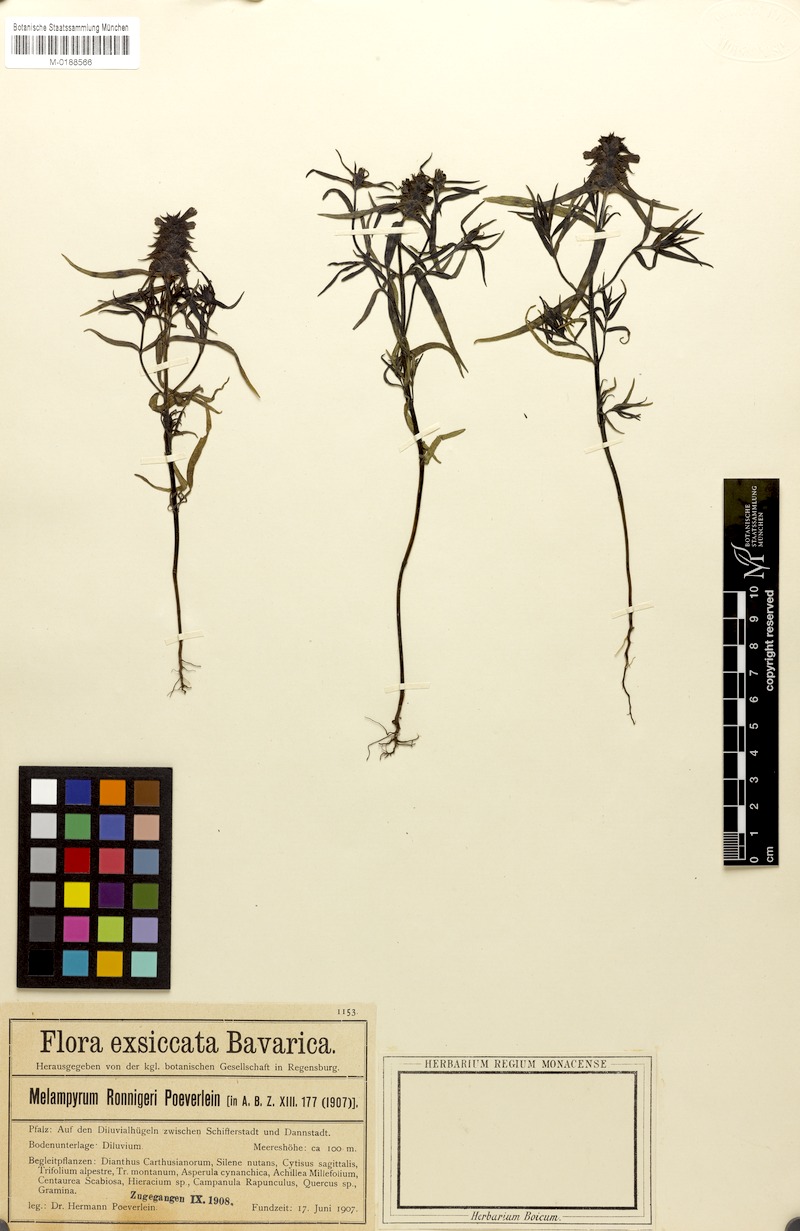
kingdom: Plantae
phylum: Tracheophyta
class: Magnoliopsida
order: Lamiales
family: Orobanchaceae
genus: Melampyrum
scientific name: Melampyrum cristatum
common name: Crested cow-wheat
